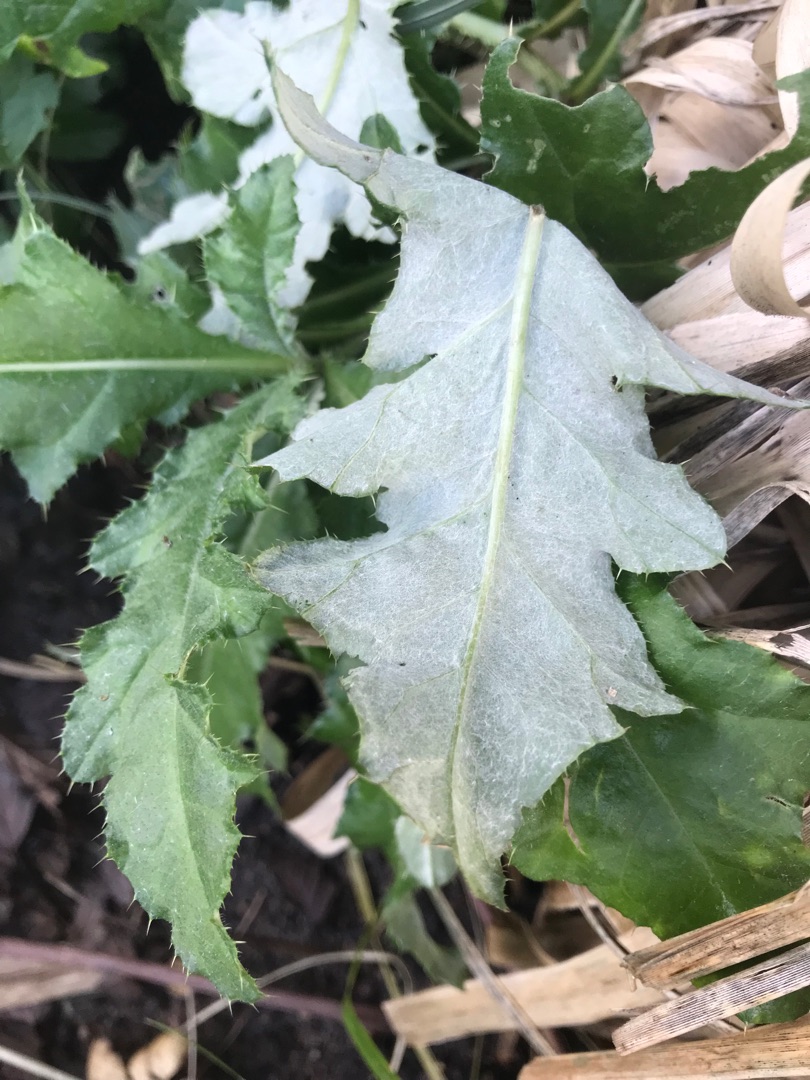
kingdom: Plantae
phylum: Tracheophyta
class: Magnoliopsida
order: Asterales
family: Asteraceae
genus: Cirsium
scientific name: Cirsium arvense
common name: Ager-tidsel
